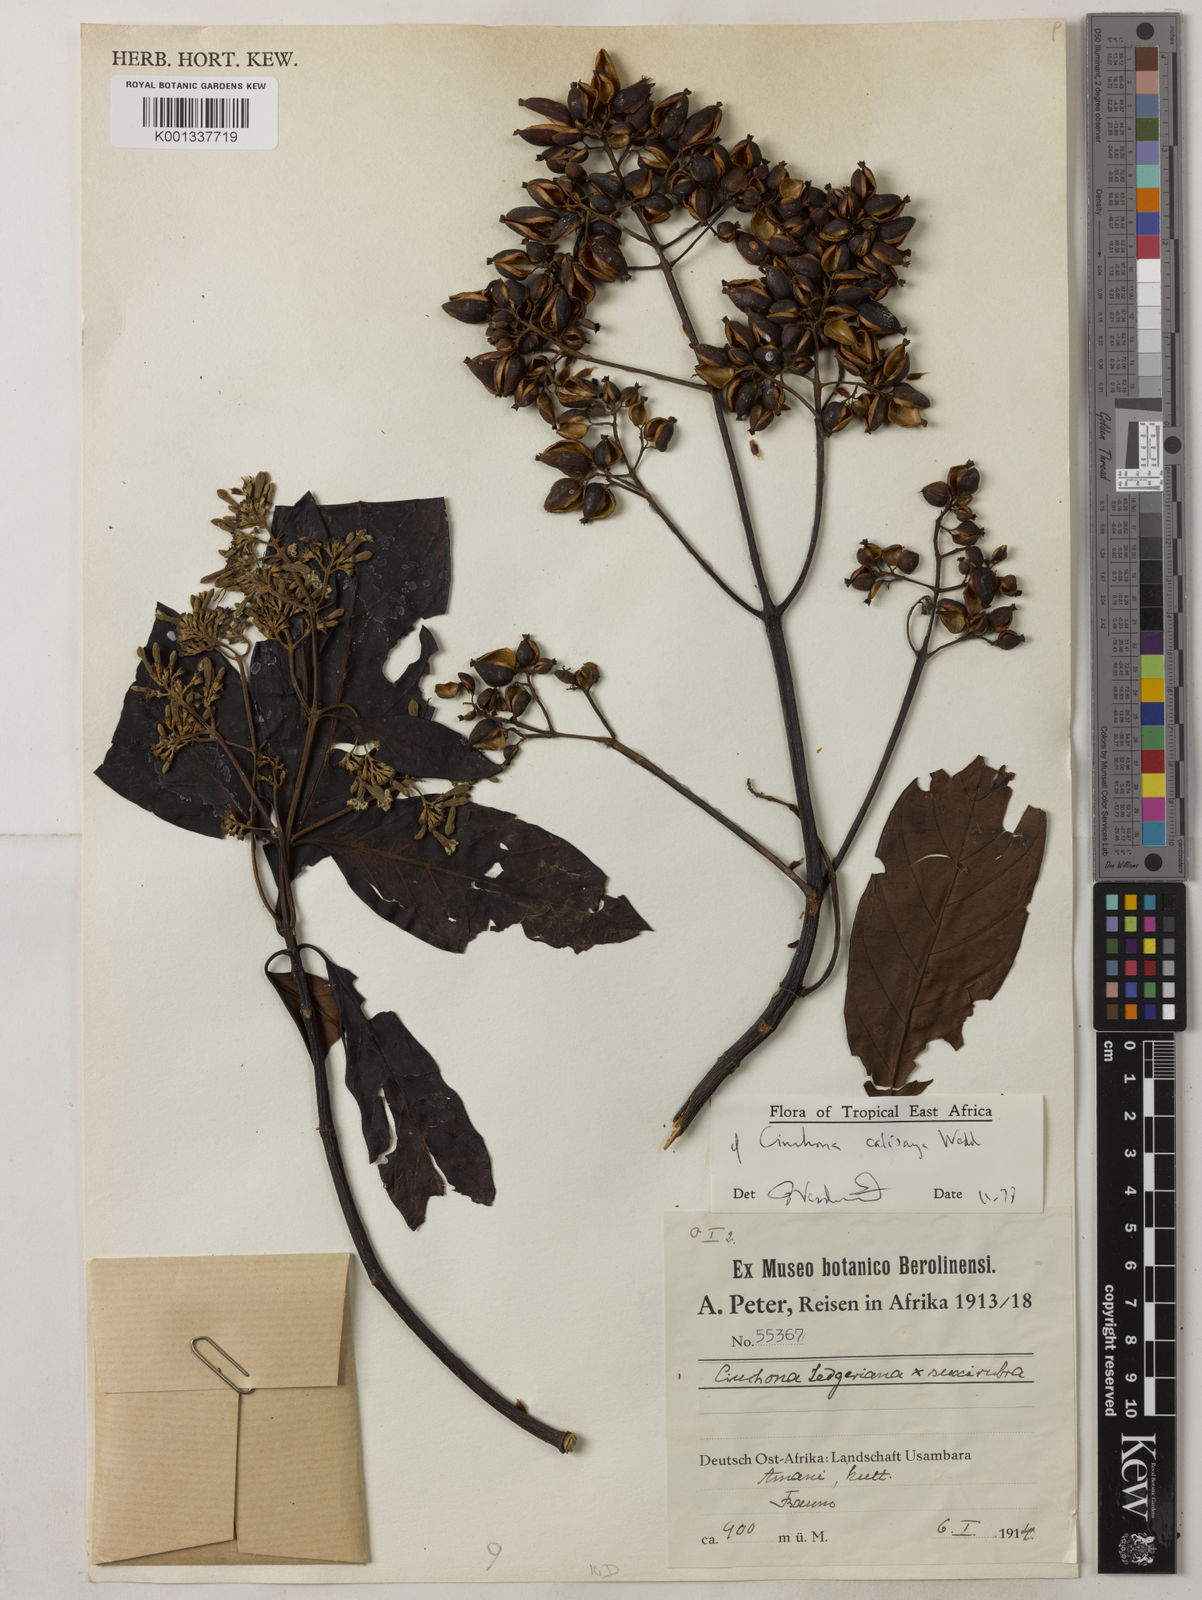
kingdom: Plantae
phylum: Tracheophyta
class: Magnoliopsida
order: Gentianales
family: Rubiaceae
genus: Cinchona
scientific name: Cinchona calisaya
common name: Ledgerbark
